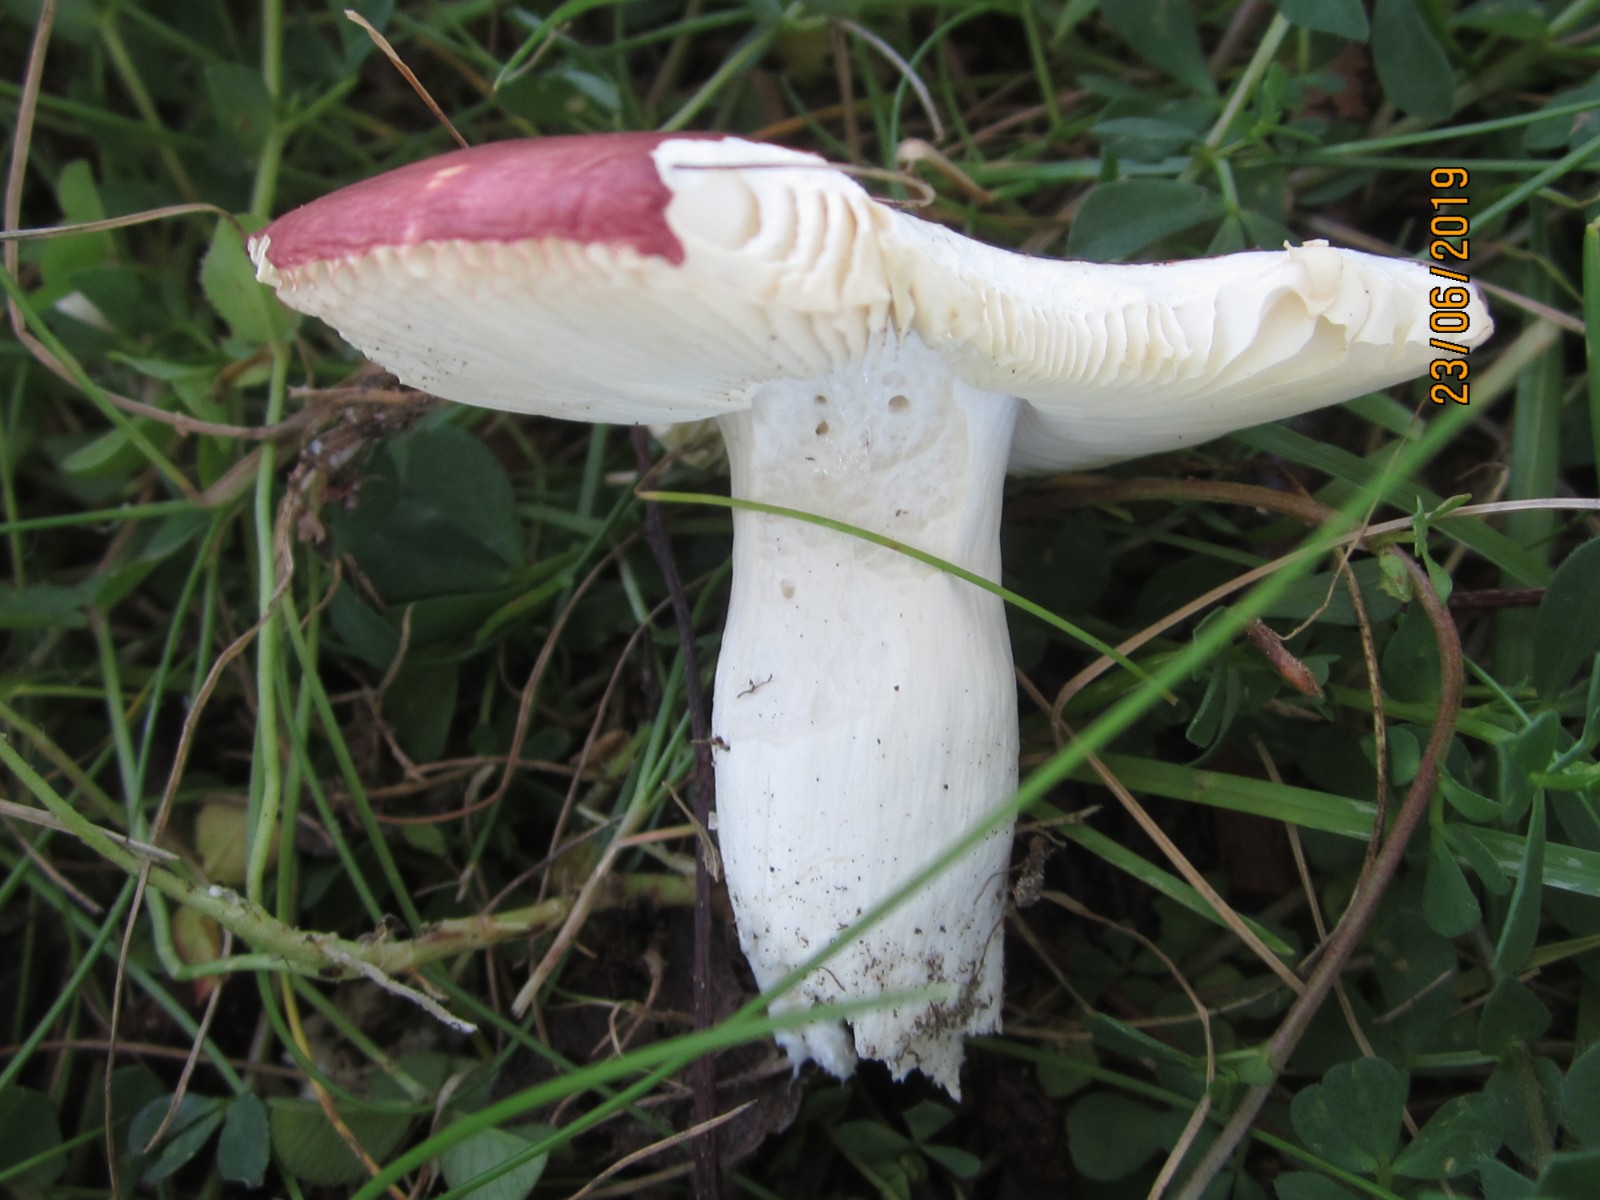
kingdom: Fungi
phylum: Basidiomycota
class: Agaricomycetes
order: Russulales
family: Russulaceae
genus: Russula
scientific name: Russula vesca
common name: spiselig skørhat
